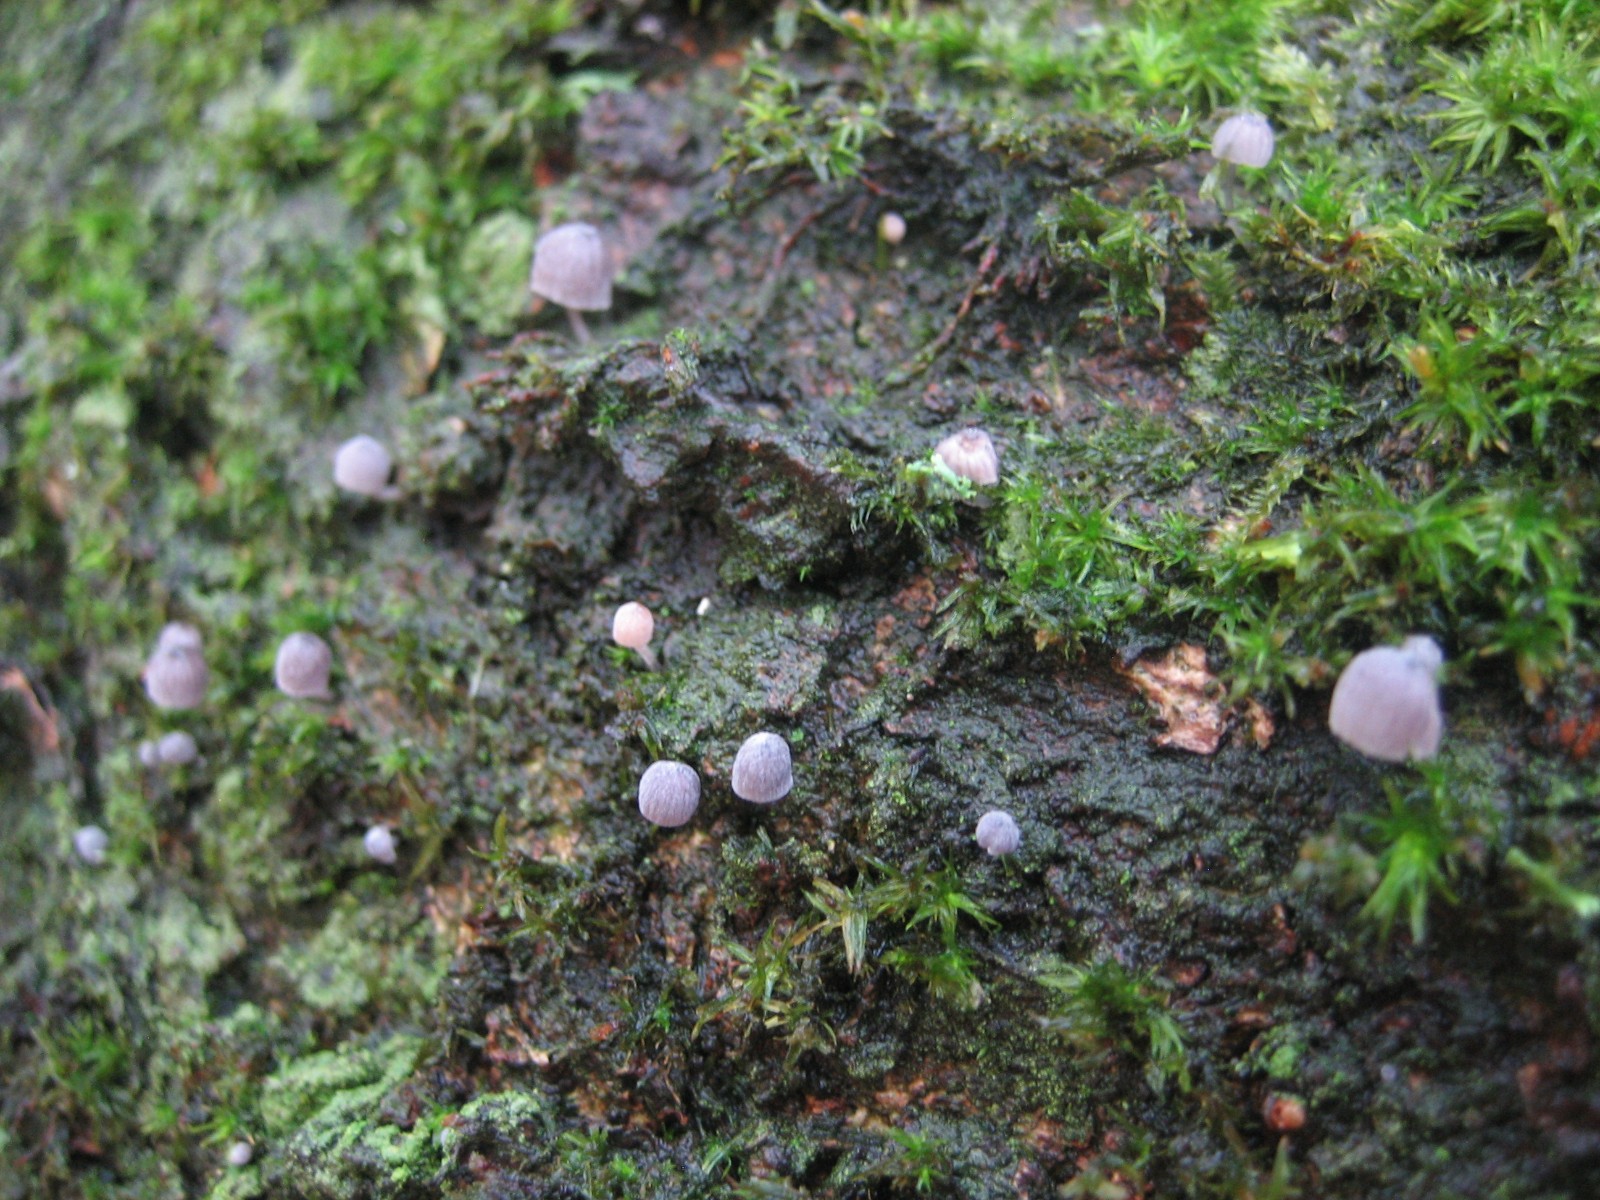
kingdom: Fungi
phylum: Basidiomycota
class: Agaricomycetes
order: Agaricales
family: Mycenaceae
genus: Mycena
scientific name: Mycena pseudocorticola
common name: gråblå bark-huesvamp
